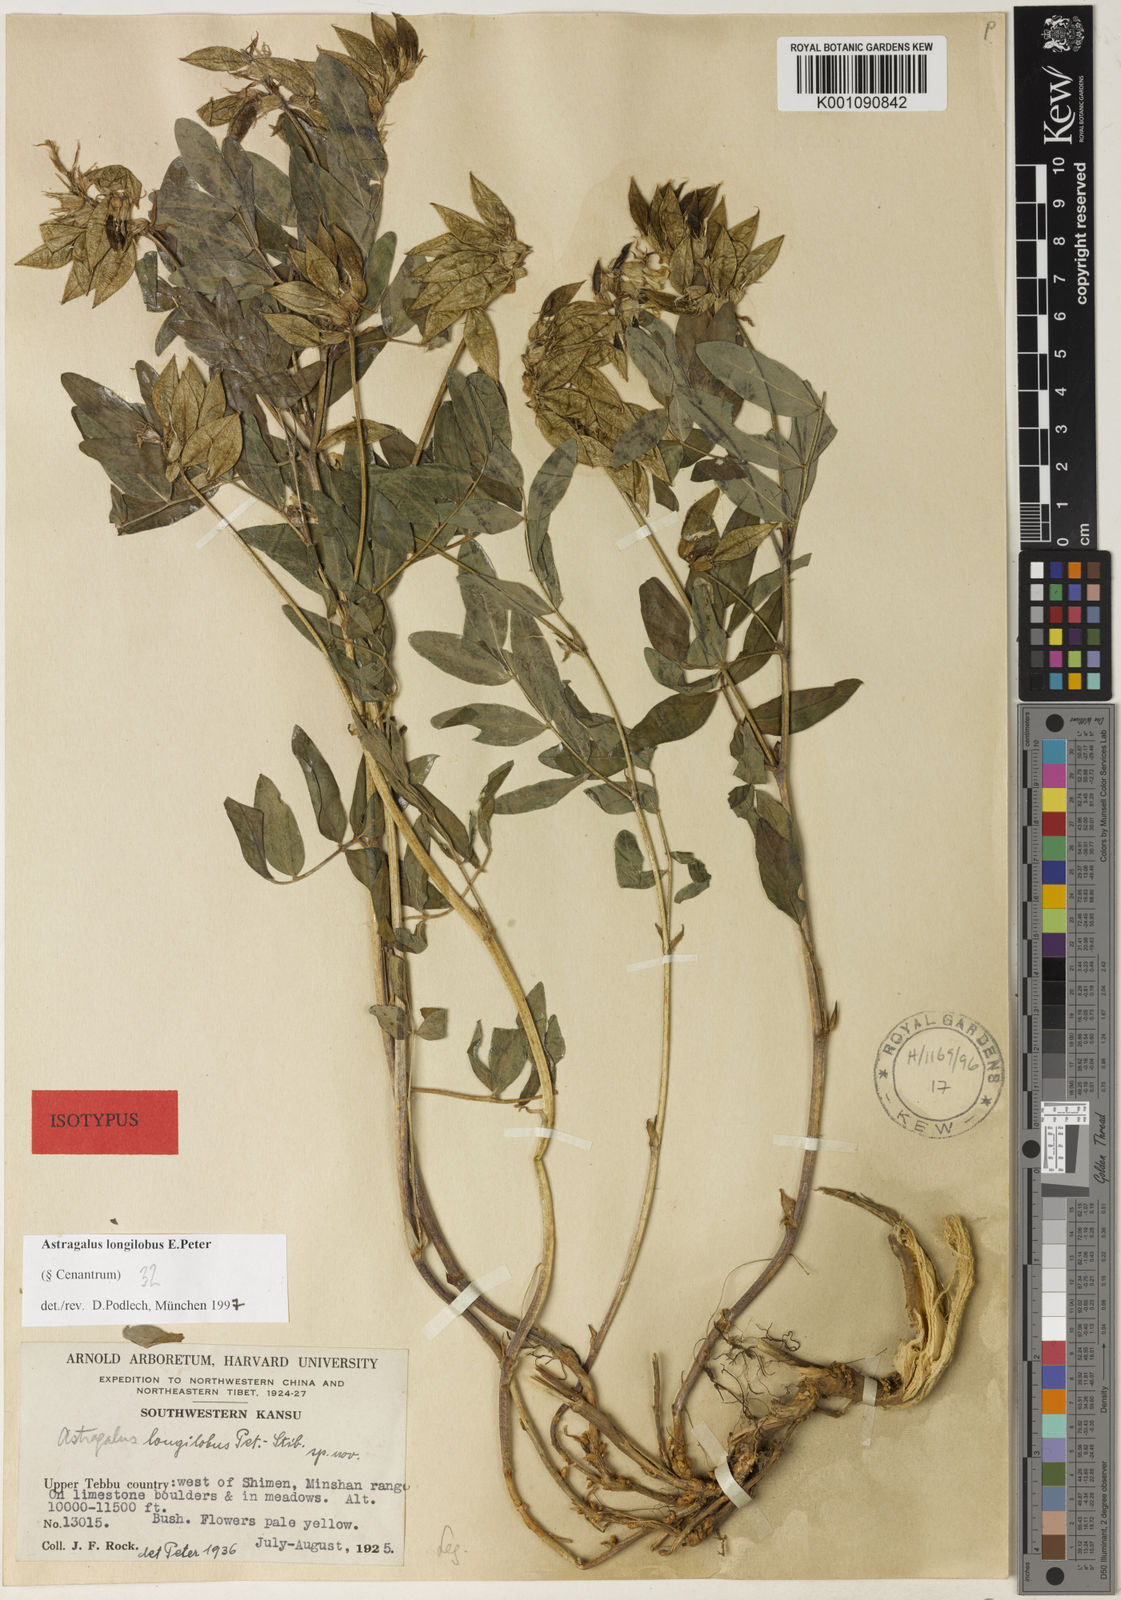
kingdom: Plantae
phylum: Tracheophyta
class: Magnoliopsida
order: Fabales
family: Fabaceae
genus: Astragalus
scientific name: Astragalus
